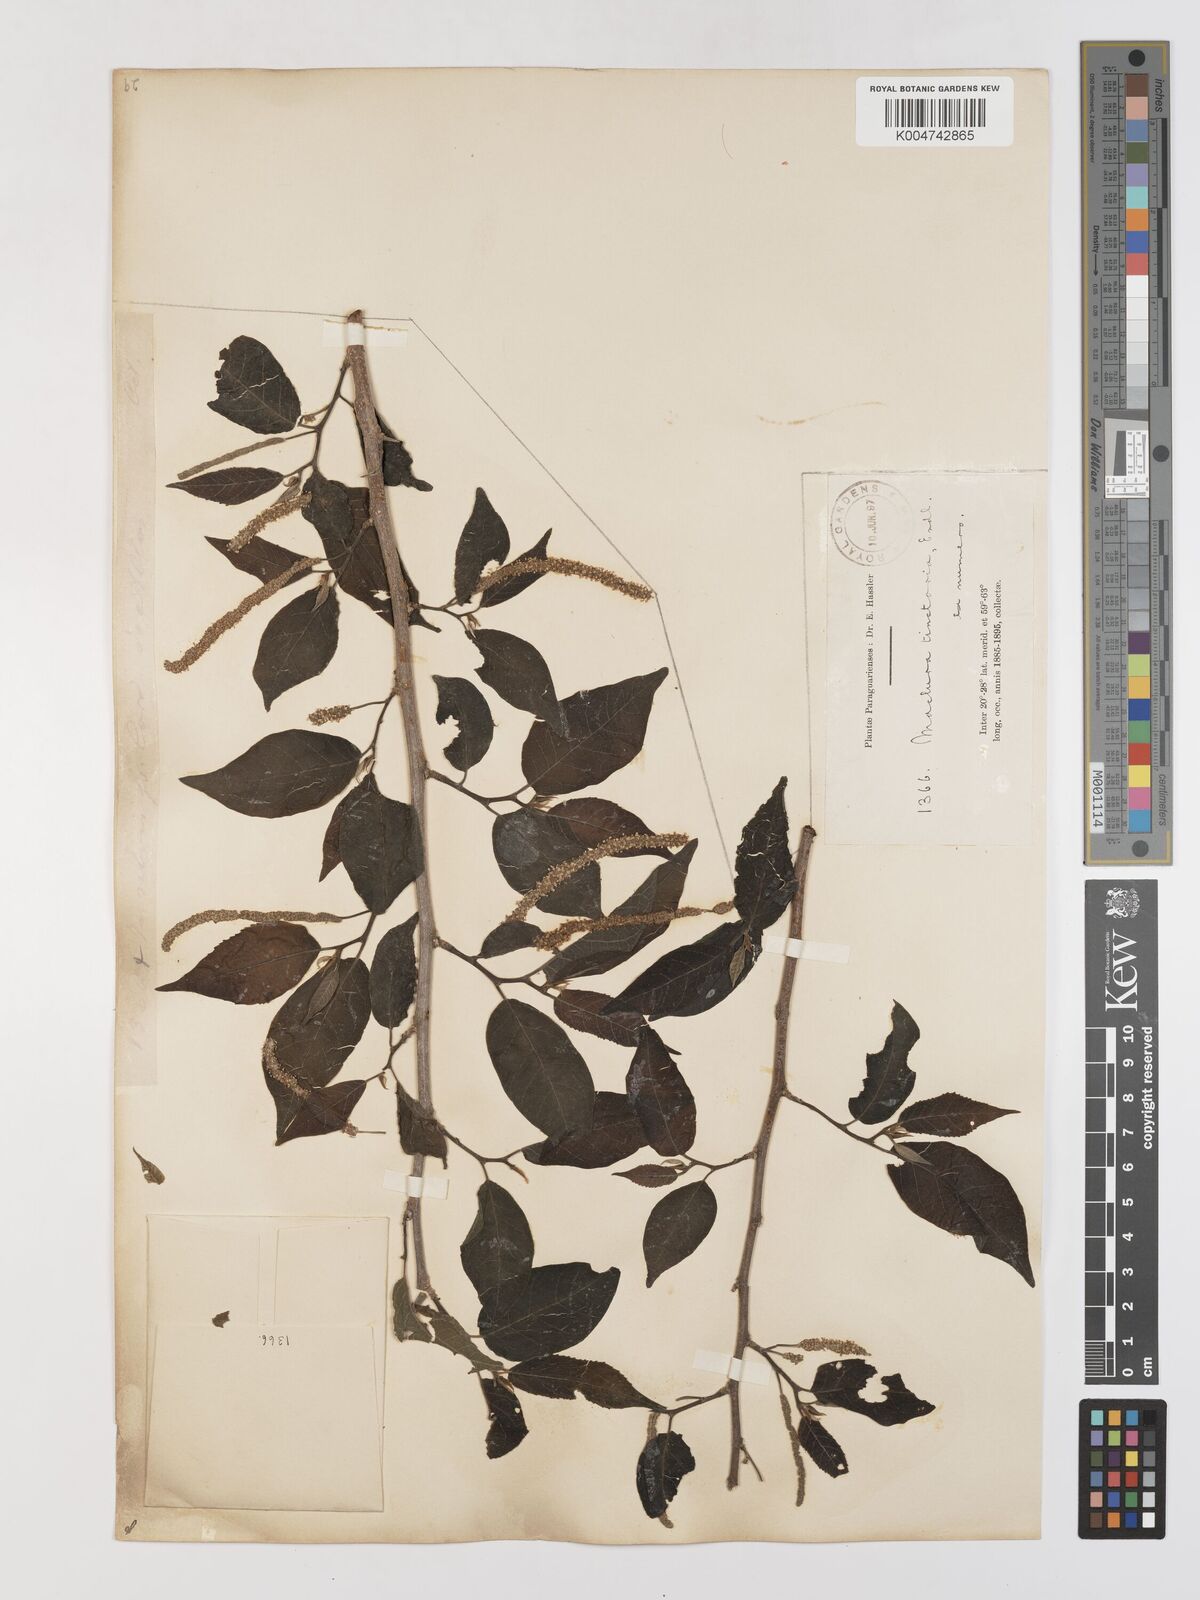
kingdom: Plantae
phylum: Tracheophyta
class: Magnoliopsida
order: Rosales
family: Moraceae
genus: Maclura
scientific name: Maclura tinctoria
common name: Old fustic
